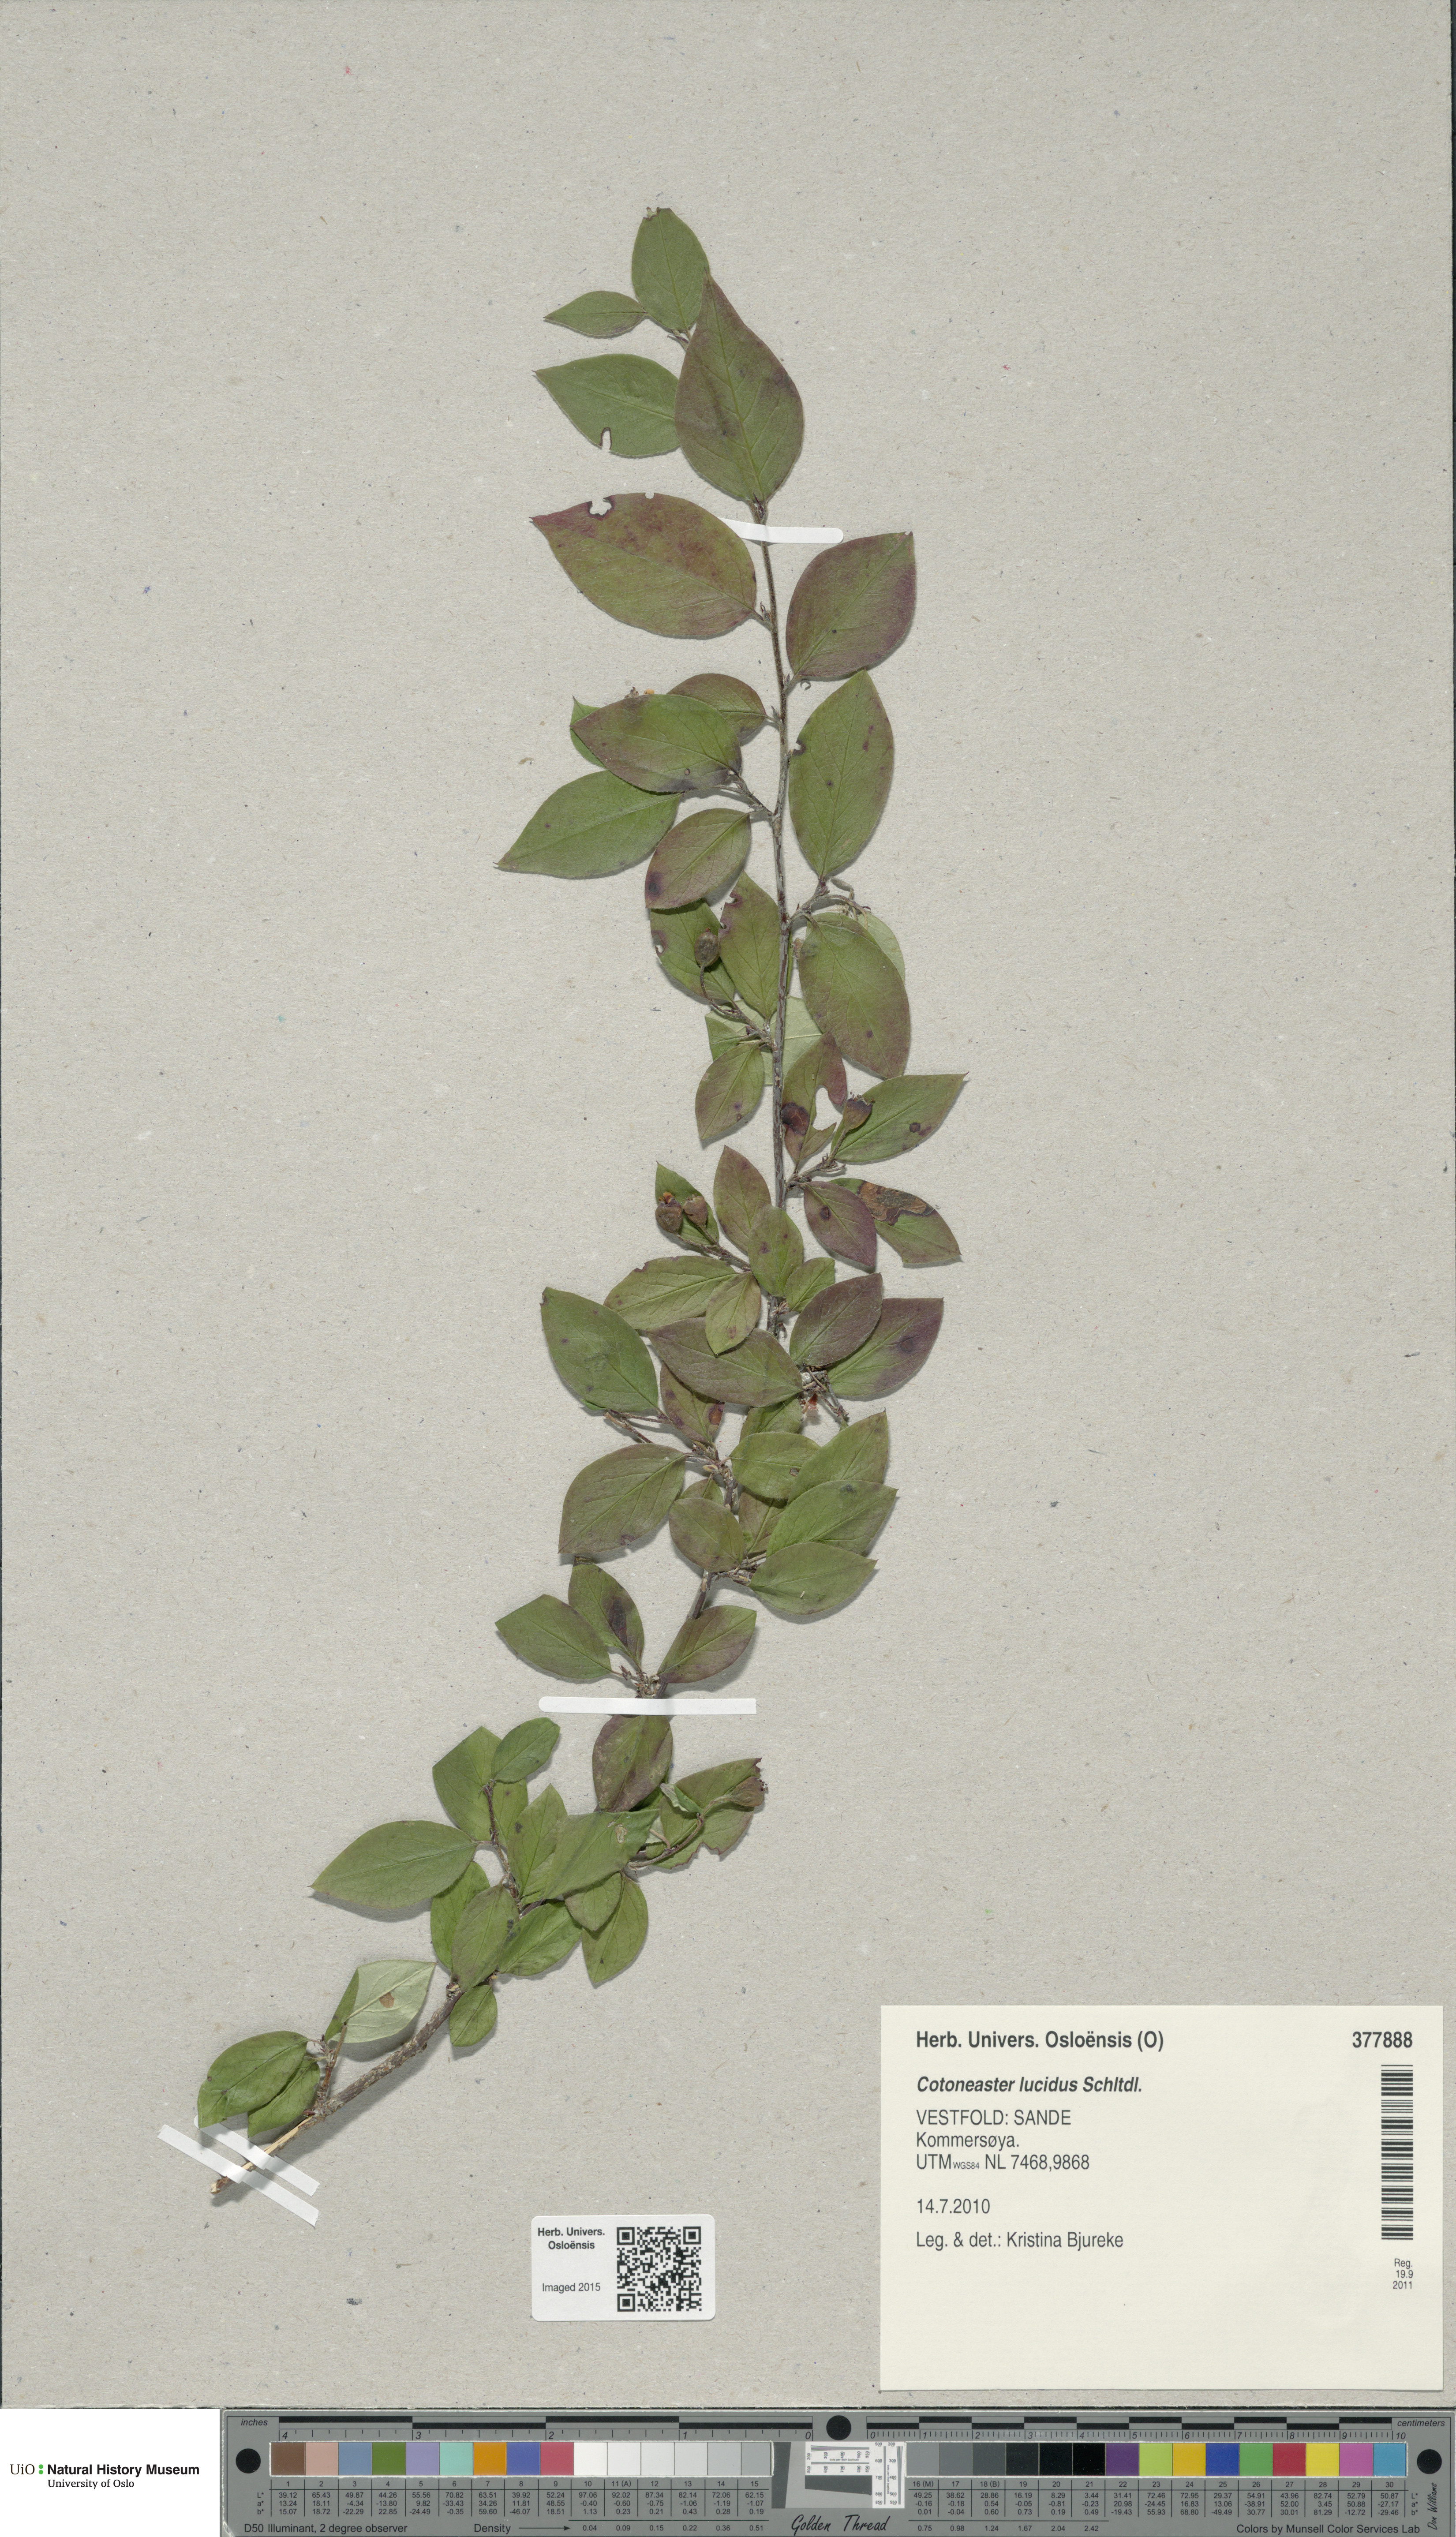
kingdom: Plantae
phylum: Tracheophyta
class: Magnoliopsida
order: Rosales
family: Rosaceae
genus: Cotoneaster
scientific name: Cotoneaster acutifolius
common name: Peking cotoneaster
